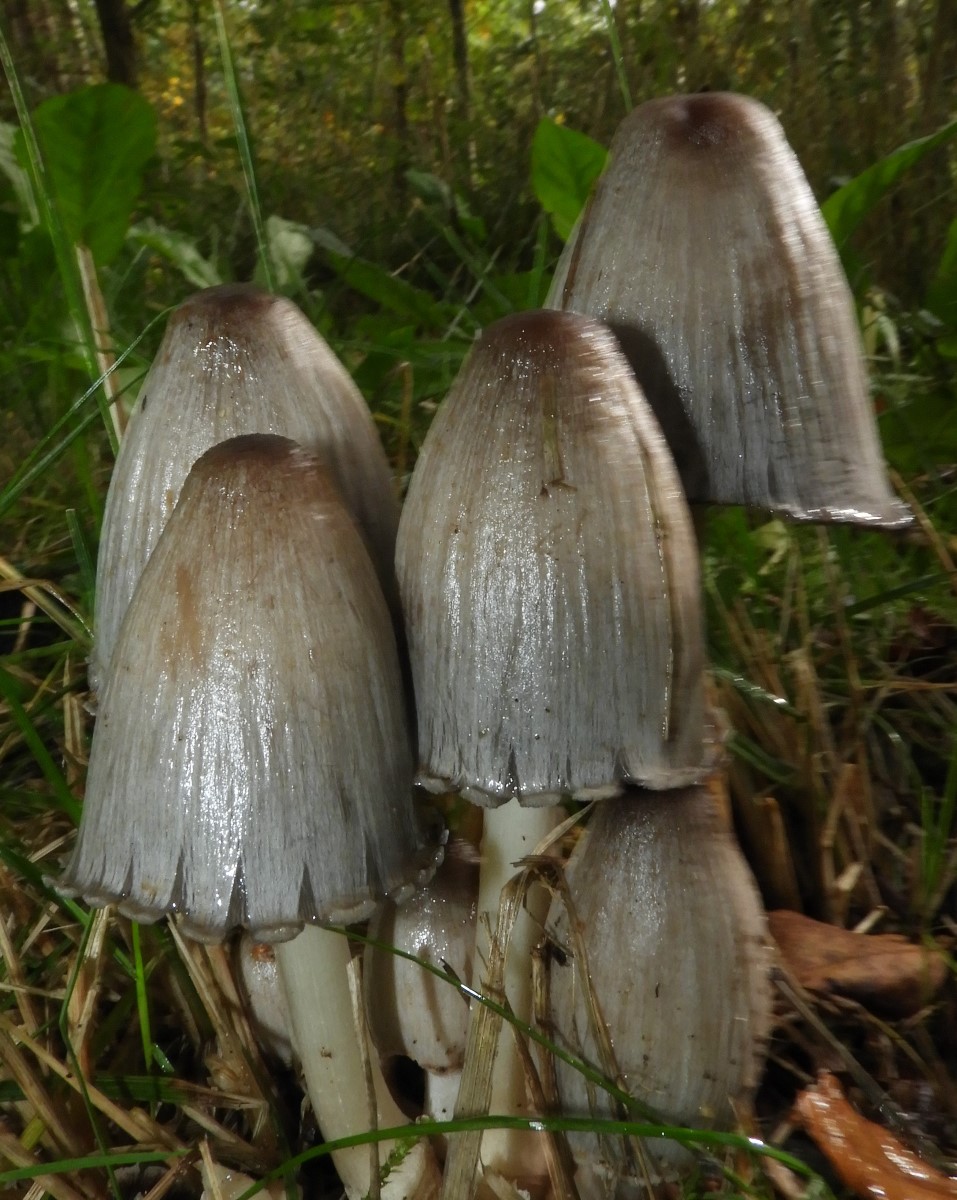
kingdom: Fungi
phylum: Basidiomycota
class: Agaricomycetes
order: Agaricales
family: Psathyrellaceae
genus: Coprinopsis
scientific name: Coprinopsis atramentaria
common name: almindelig blækhat
